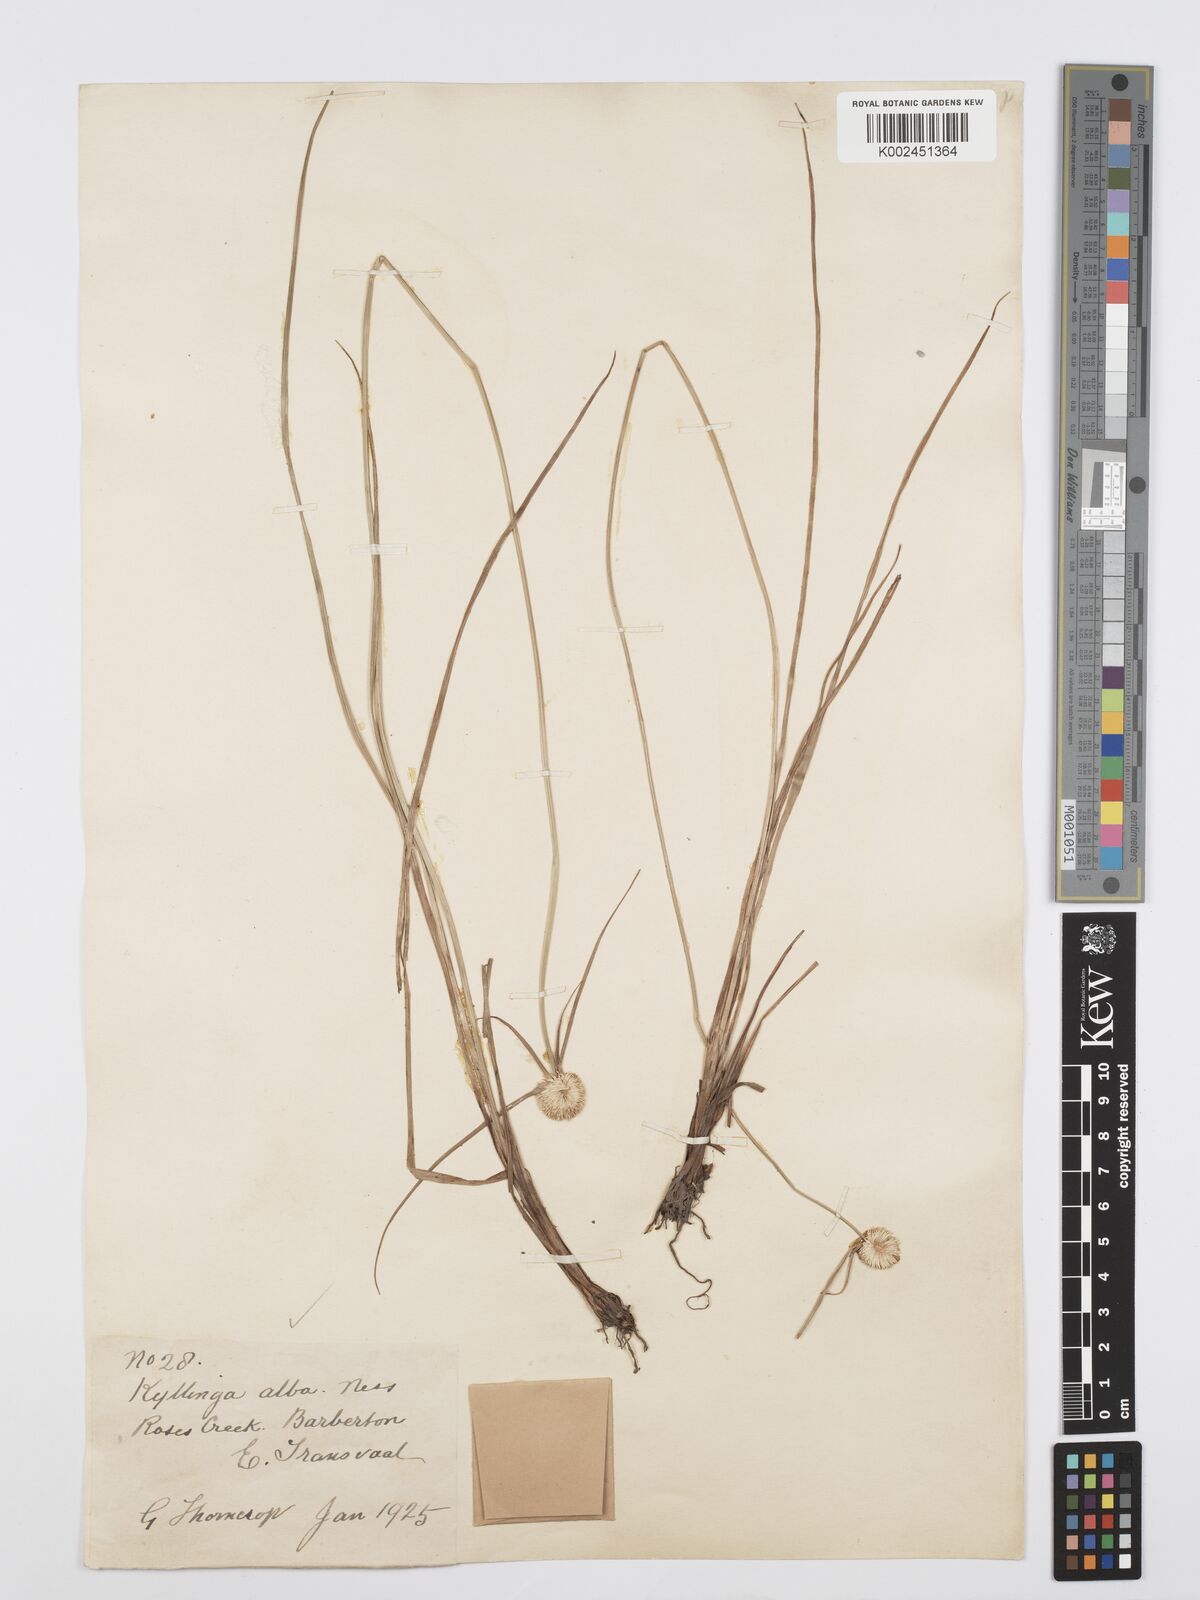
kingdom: Plantae
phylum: Tracheophyta
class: Liliopsida
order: Poales
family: Cyperaceae
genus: Cyperus
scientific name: Cyperus
